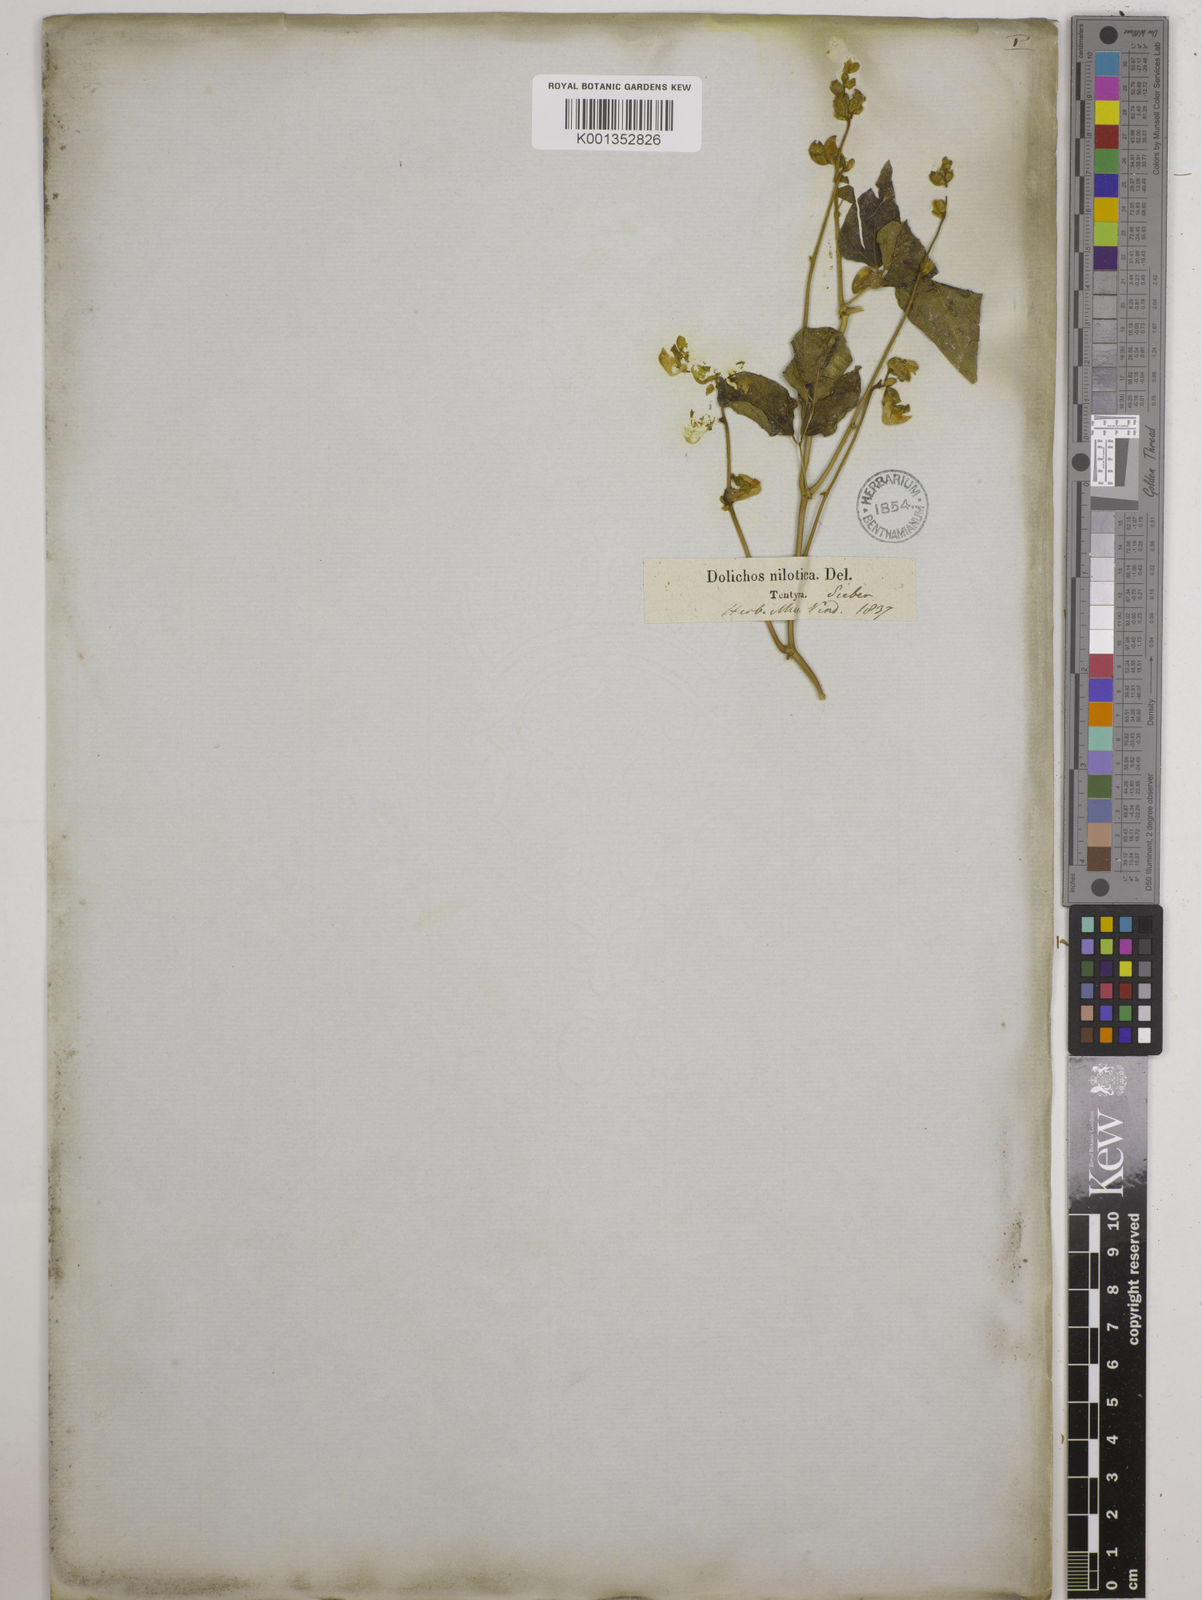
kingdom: Plantae
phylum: Tracheophyta
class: Magnoliopsida
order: Fabales
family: Fabaceae
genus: Lablab
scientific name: Lablab purpureus
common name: Lablab-bean
